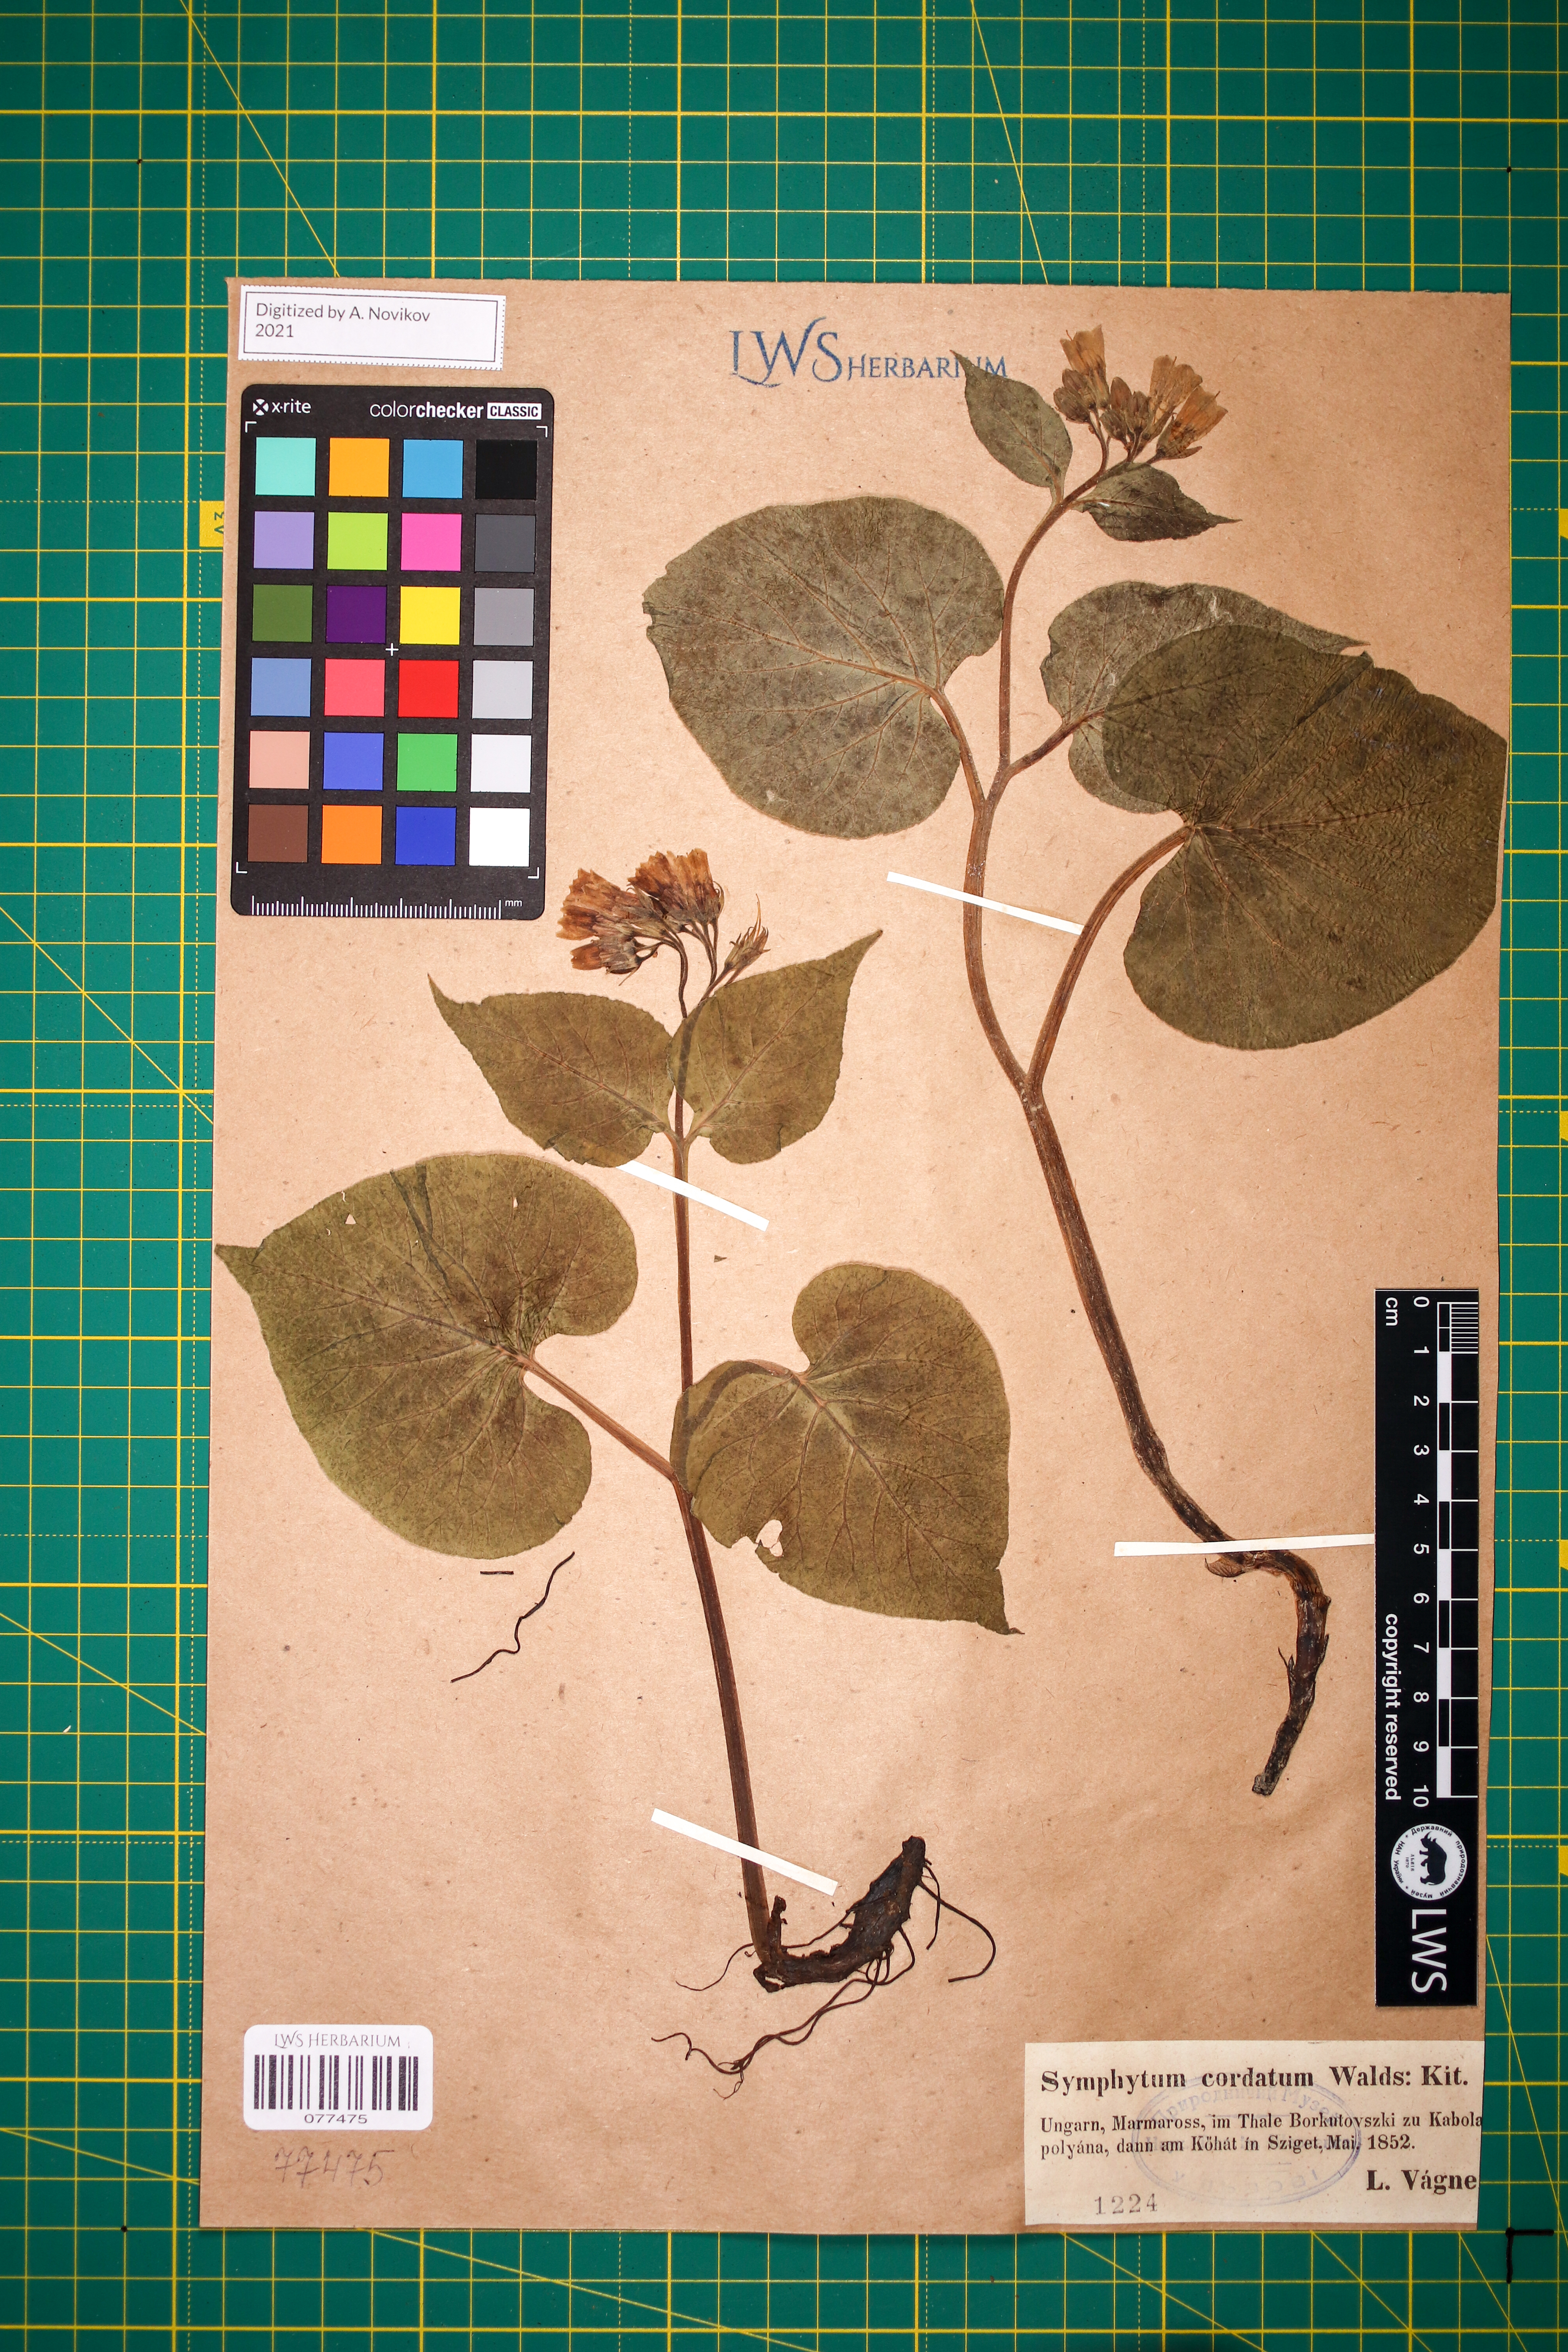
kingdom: Plantae
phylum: Tracheophyta
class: Magnoliopsida
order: Boraginales
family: Boraginaceae
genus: Symphytum
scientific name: Symphytum cordatum
